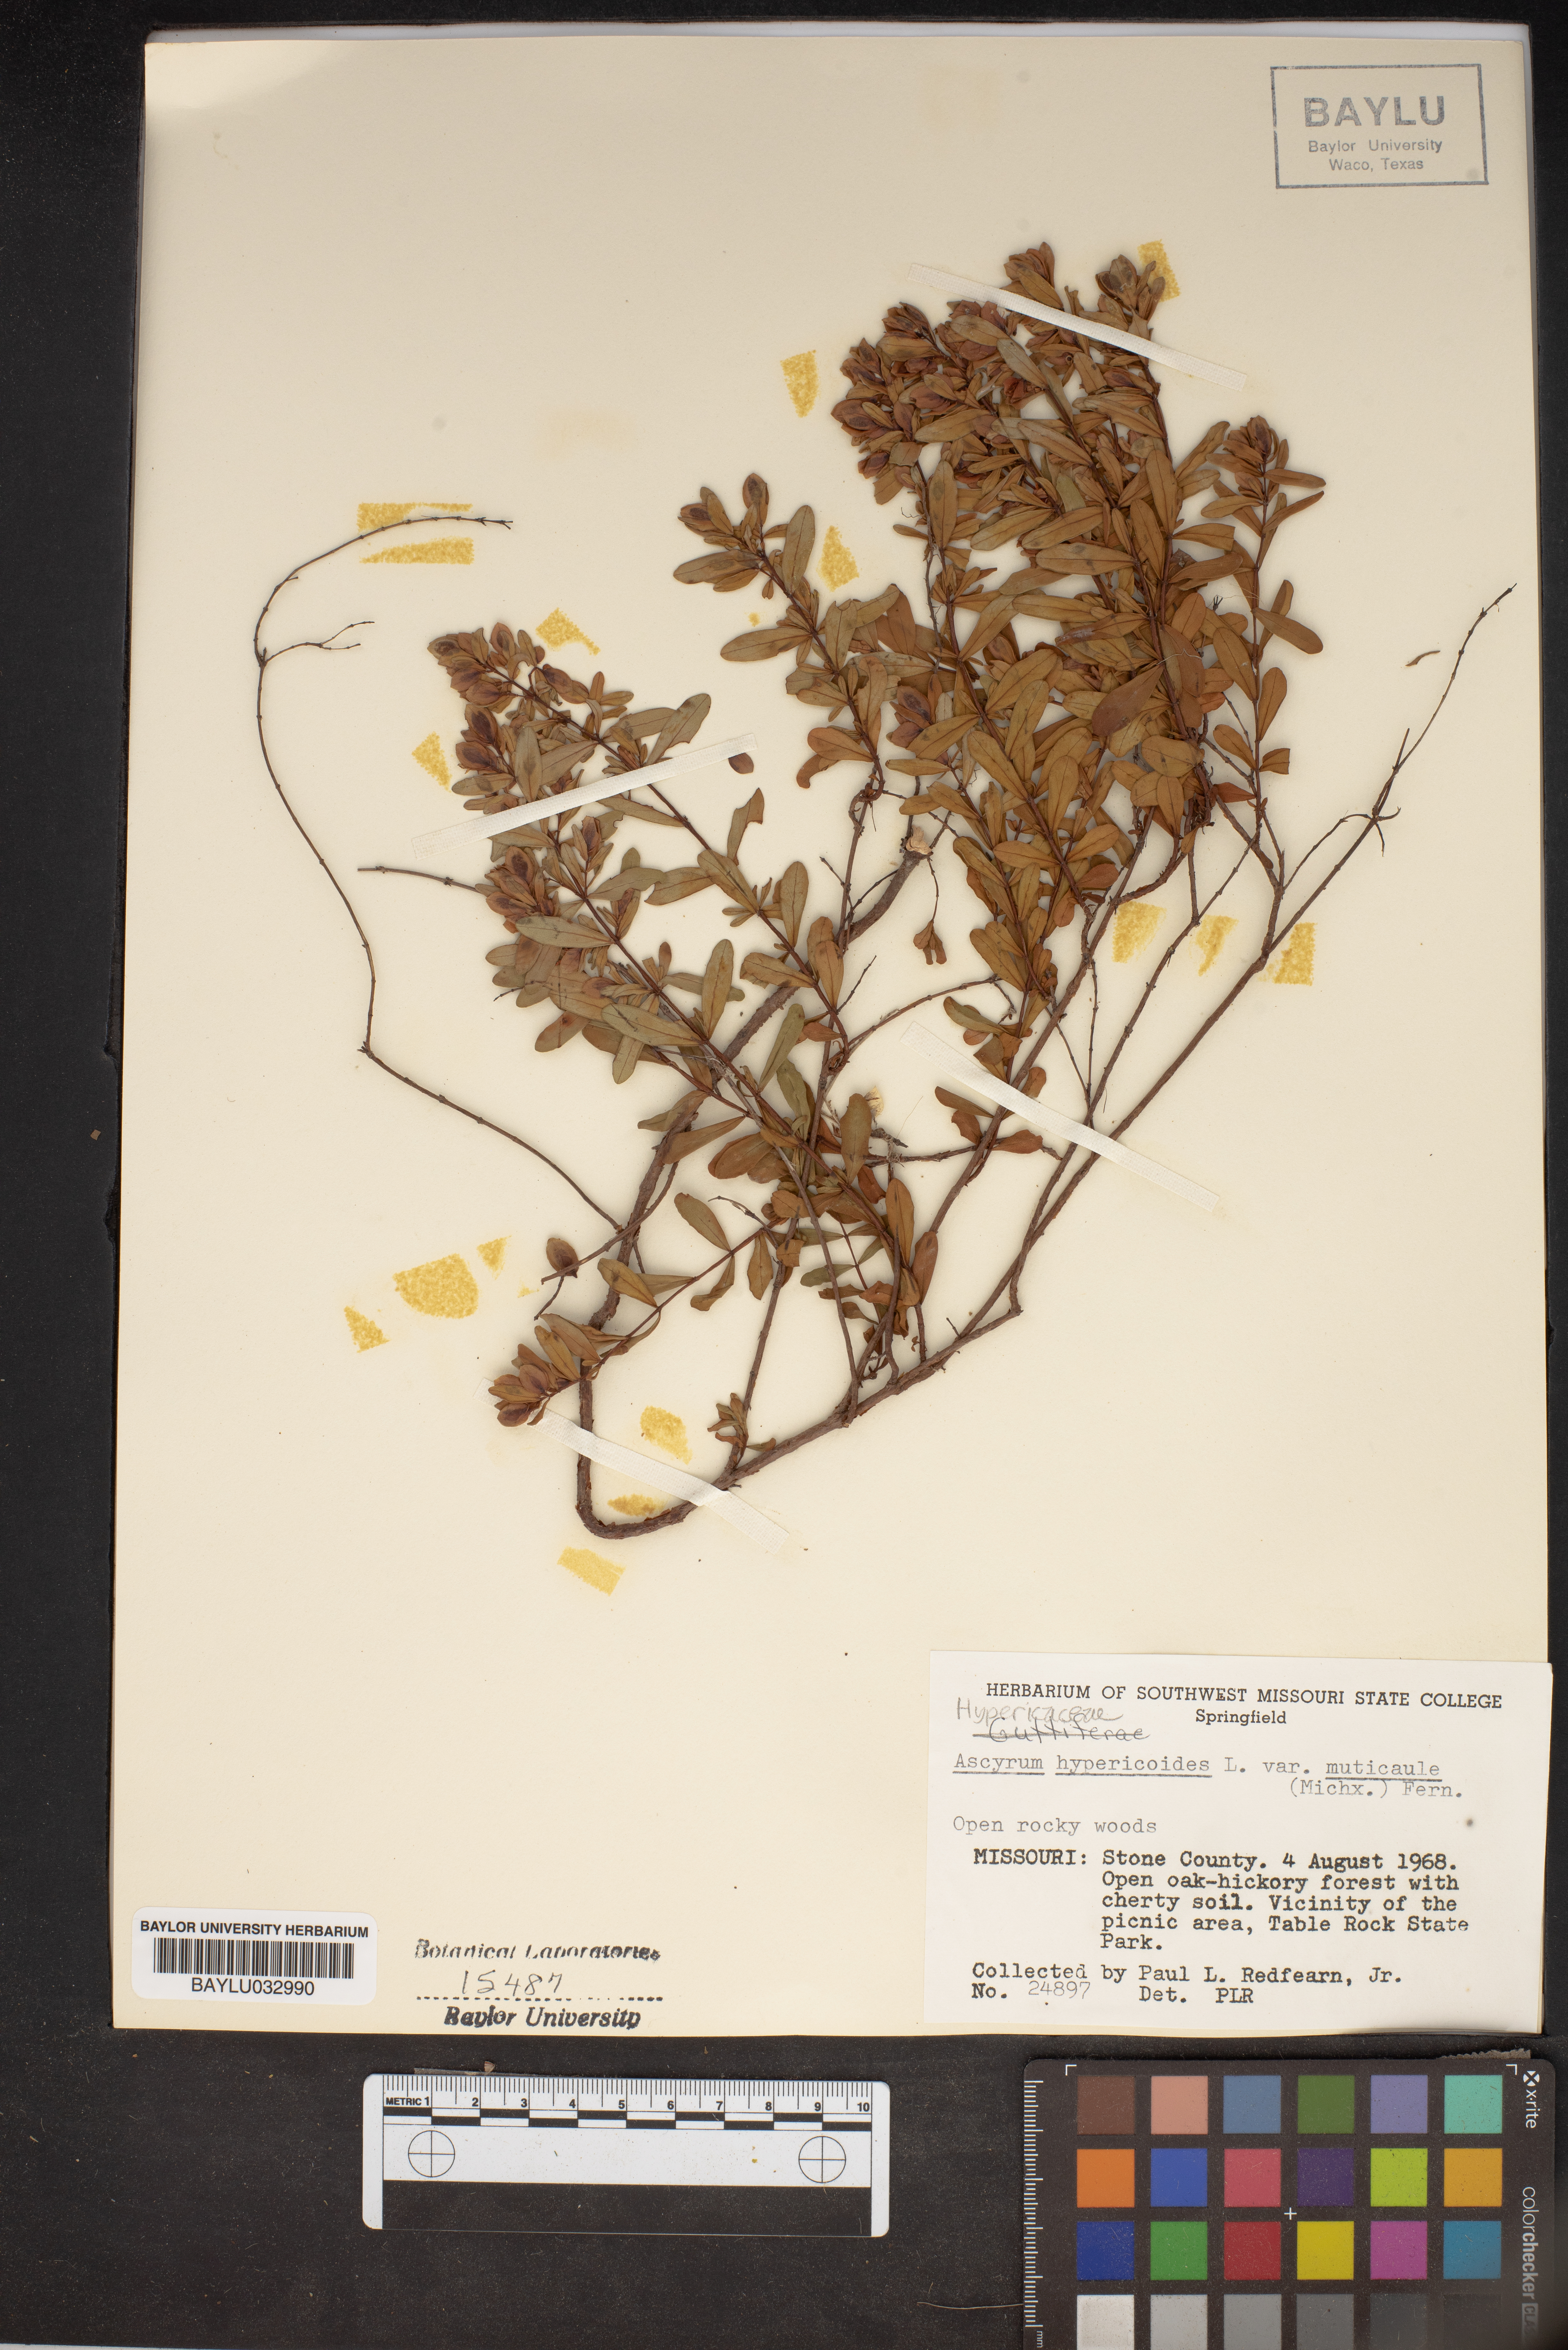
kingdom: Plantae
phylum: Tracheophyta
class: Magnoliopsida
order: Malpighiales
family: Hypericaceae
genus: Hypericum
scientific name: Hypericum hypericoides
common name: St. andrew's cross
